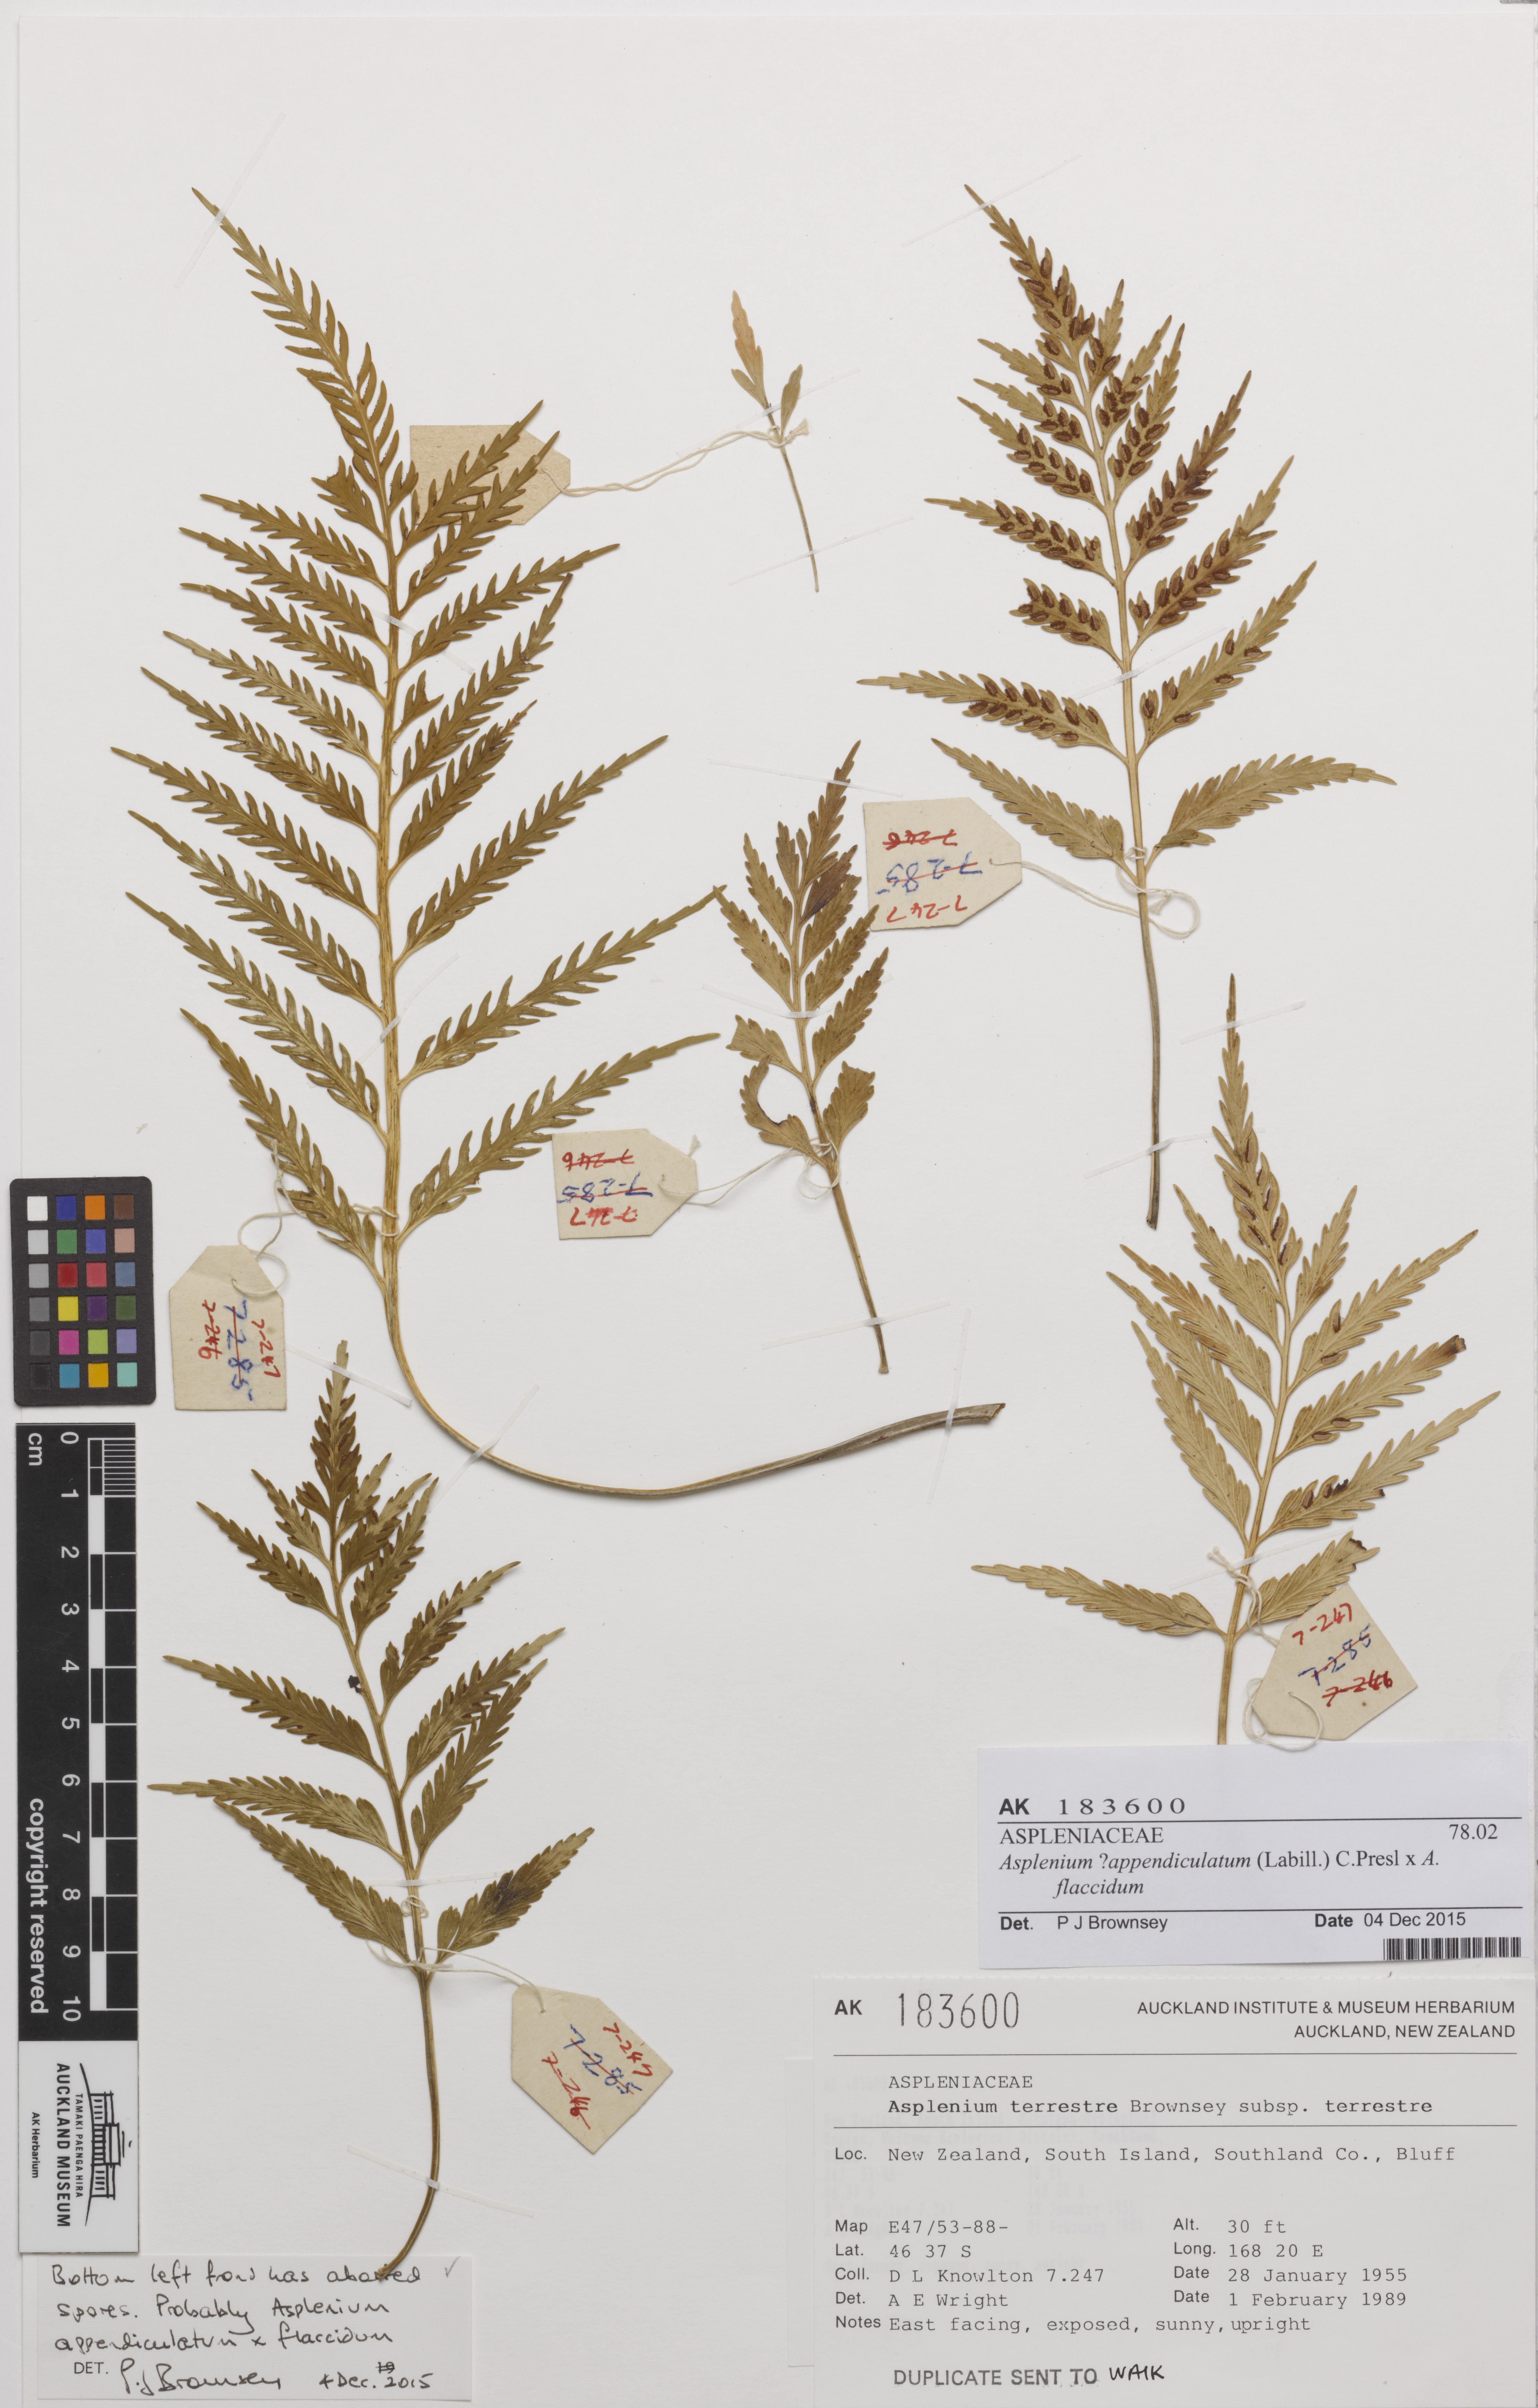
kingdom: Plantae
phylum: Tracheophyta
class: Polypodiopsida
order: Polypodiales
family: Aspleniaceae
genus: Asplenium
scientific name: Asplenium
